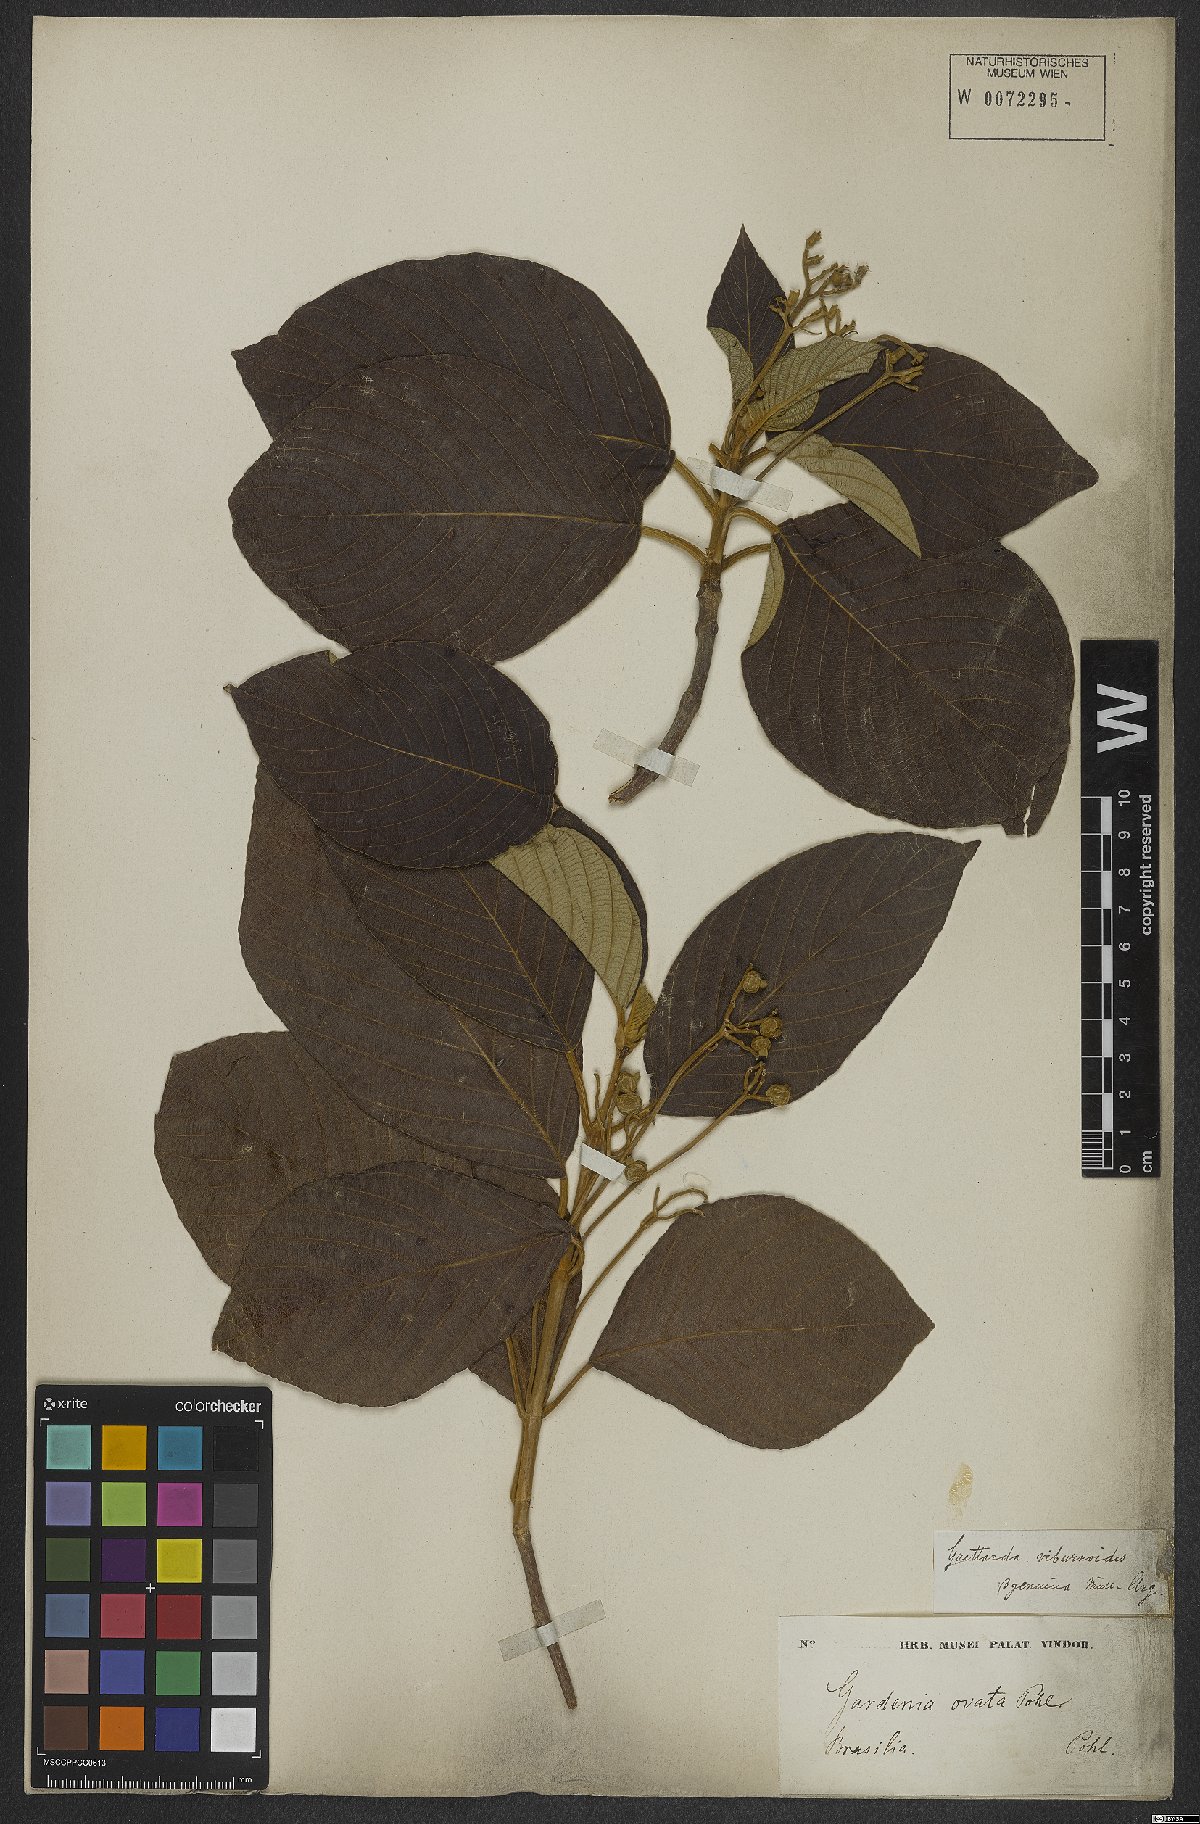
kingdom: Plantae
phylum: Tracheophyta
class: Magnoliopsida
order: Gentianales
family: Rubiaceae
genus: Guettarda
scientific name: Guettarda viburnoides
